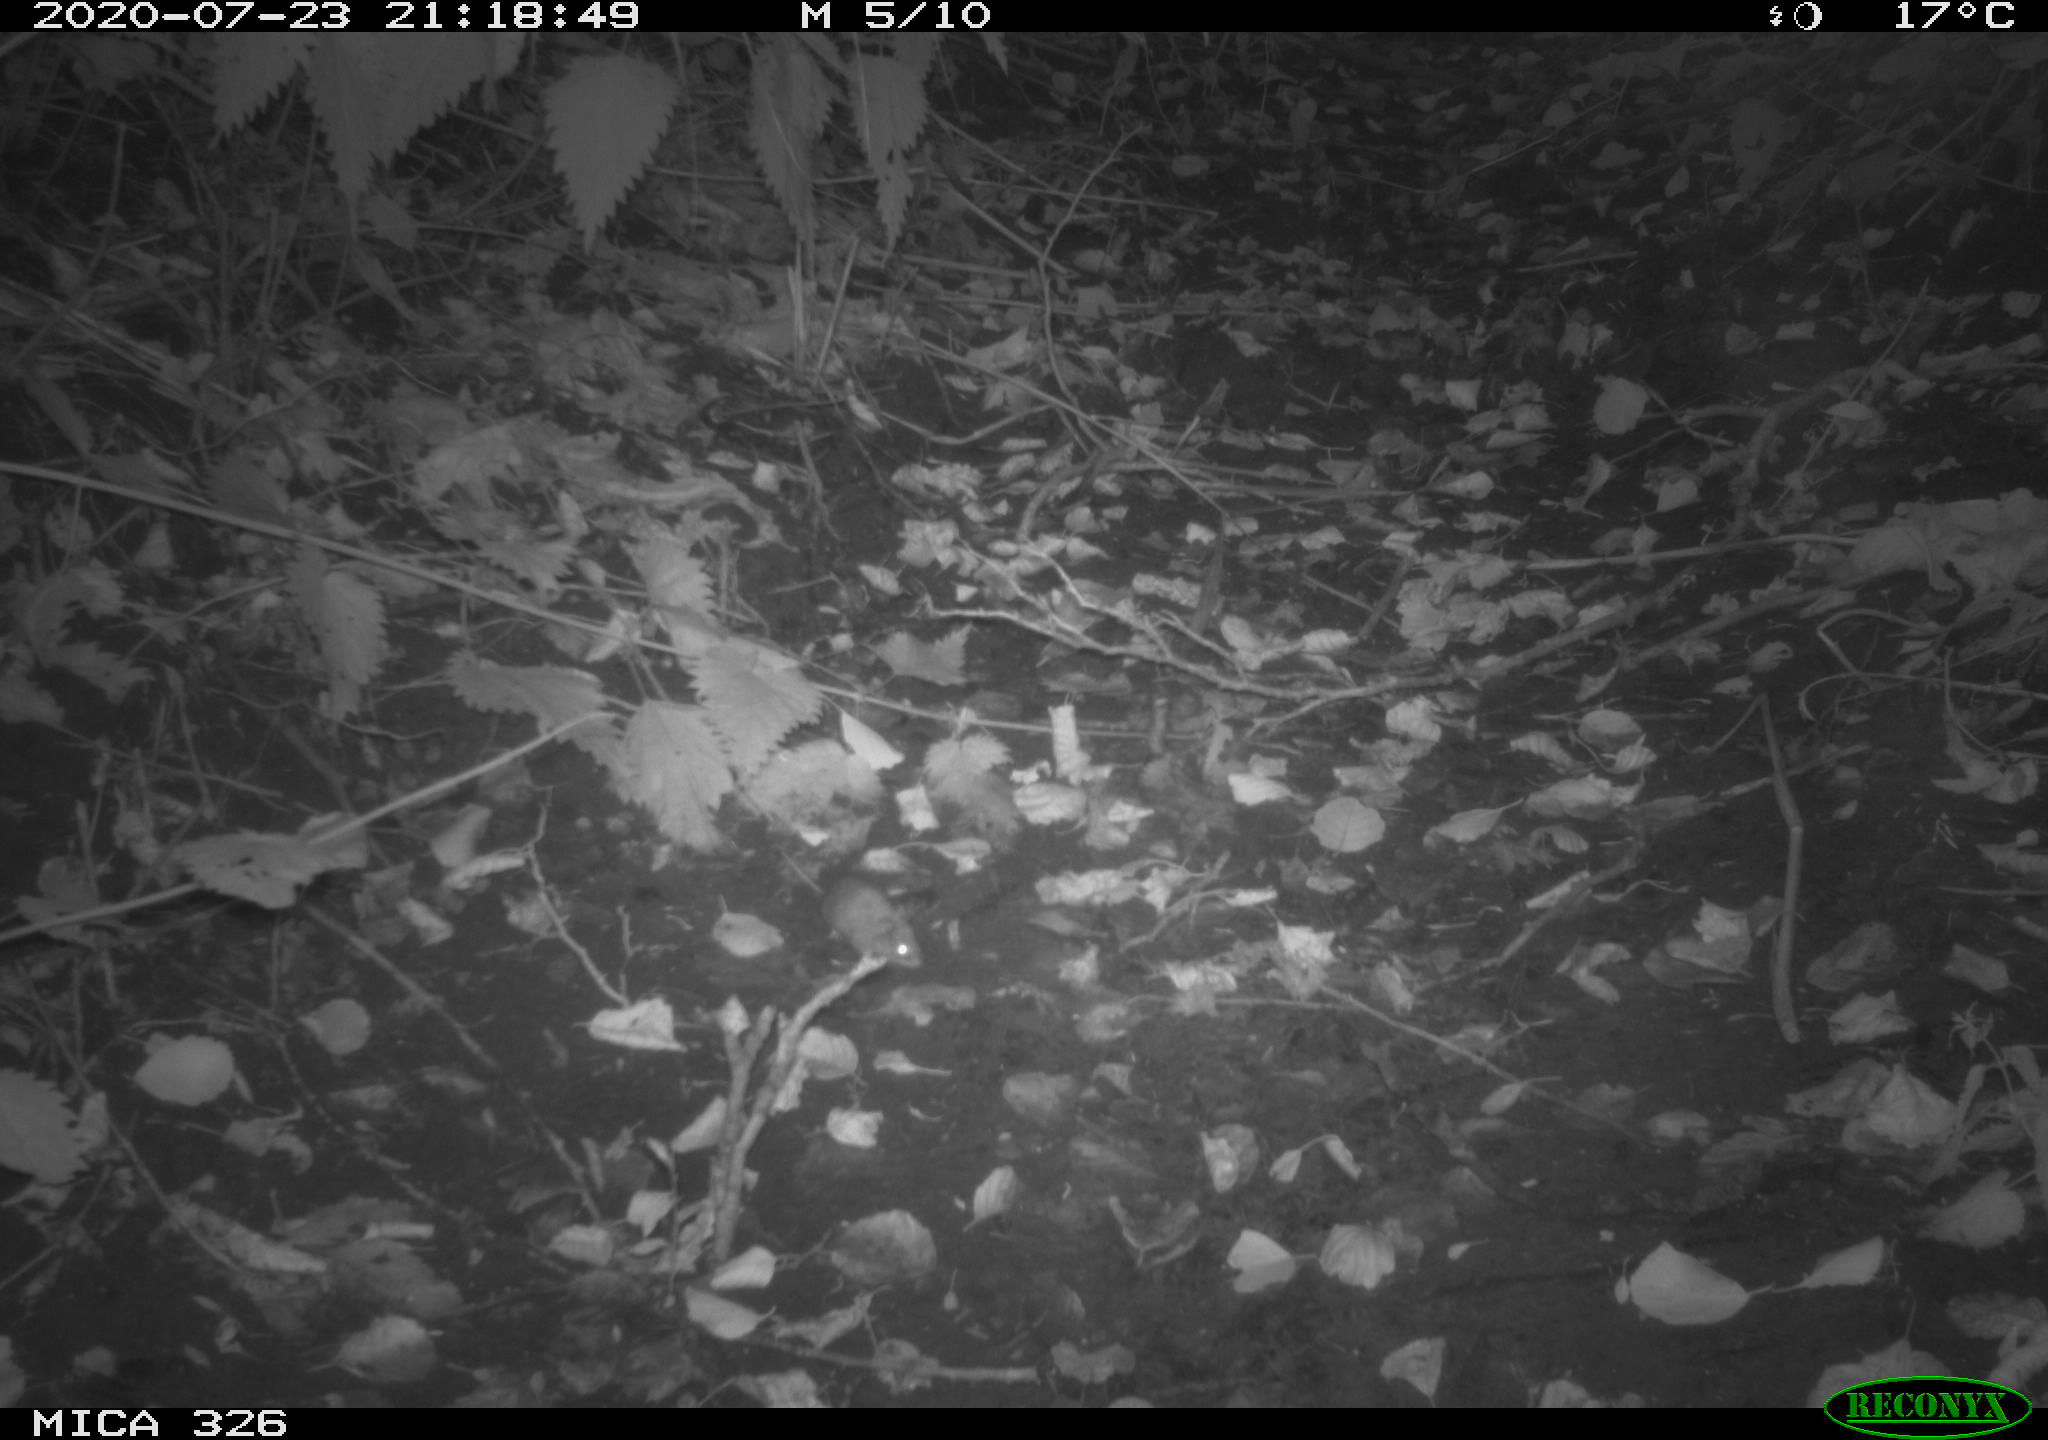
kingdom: Animalia
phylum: Chordata
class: Mammalia
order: Rodentia
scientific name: Rodentia
